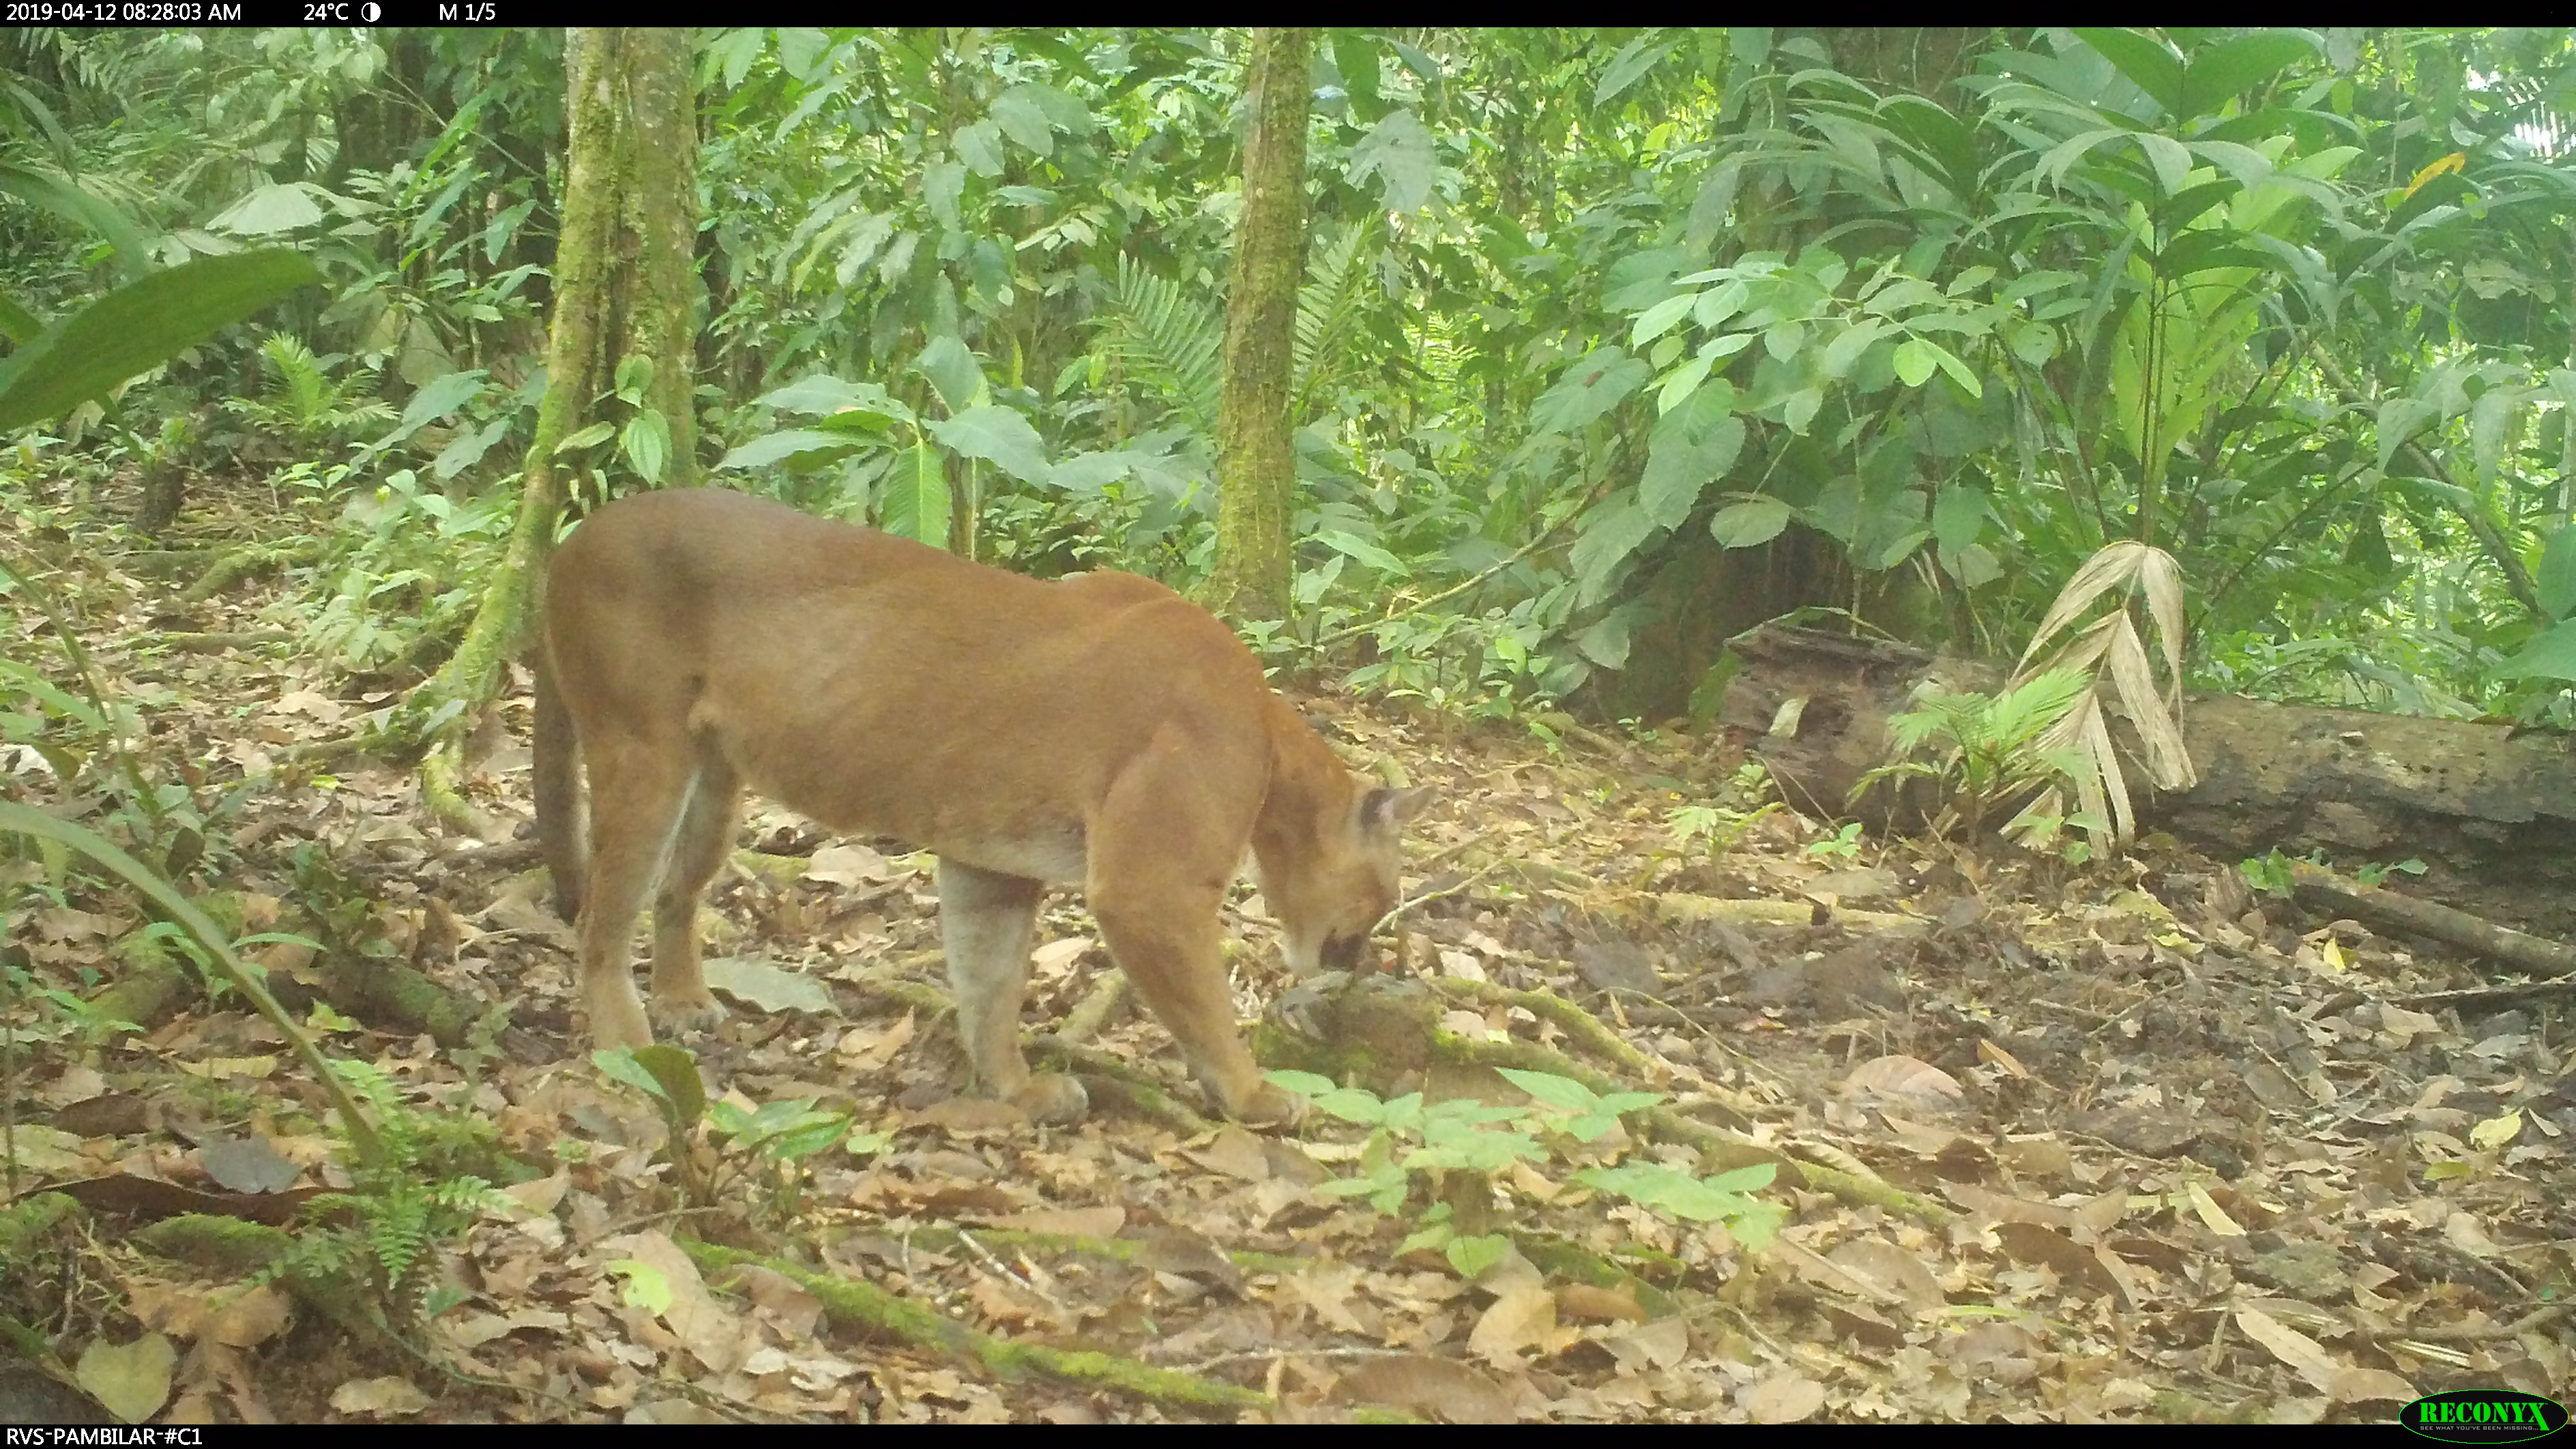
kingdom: Animalia
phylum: Chordata
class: Mammalia
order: Carnivora
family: Felidae
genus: Puma
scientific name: Puma concolor
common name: Puma
